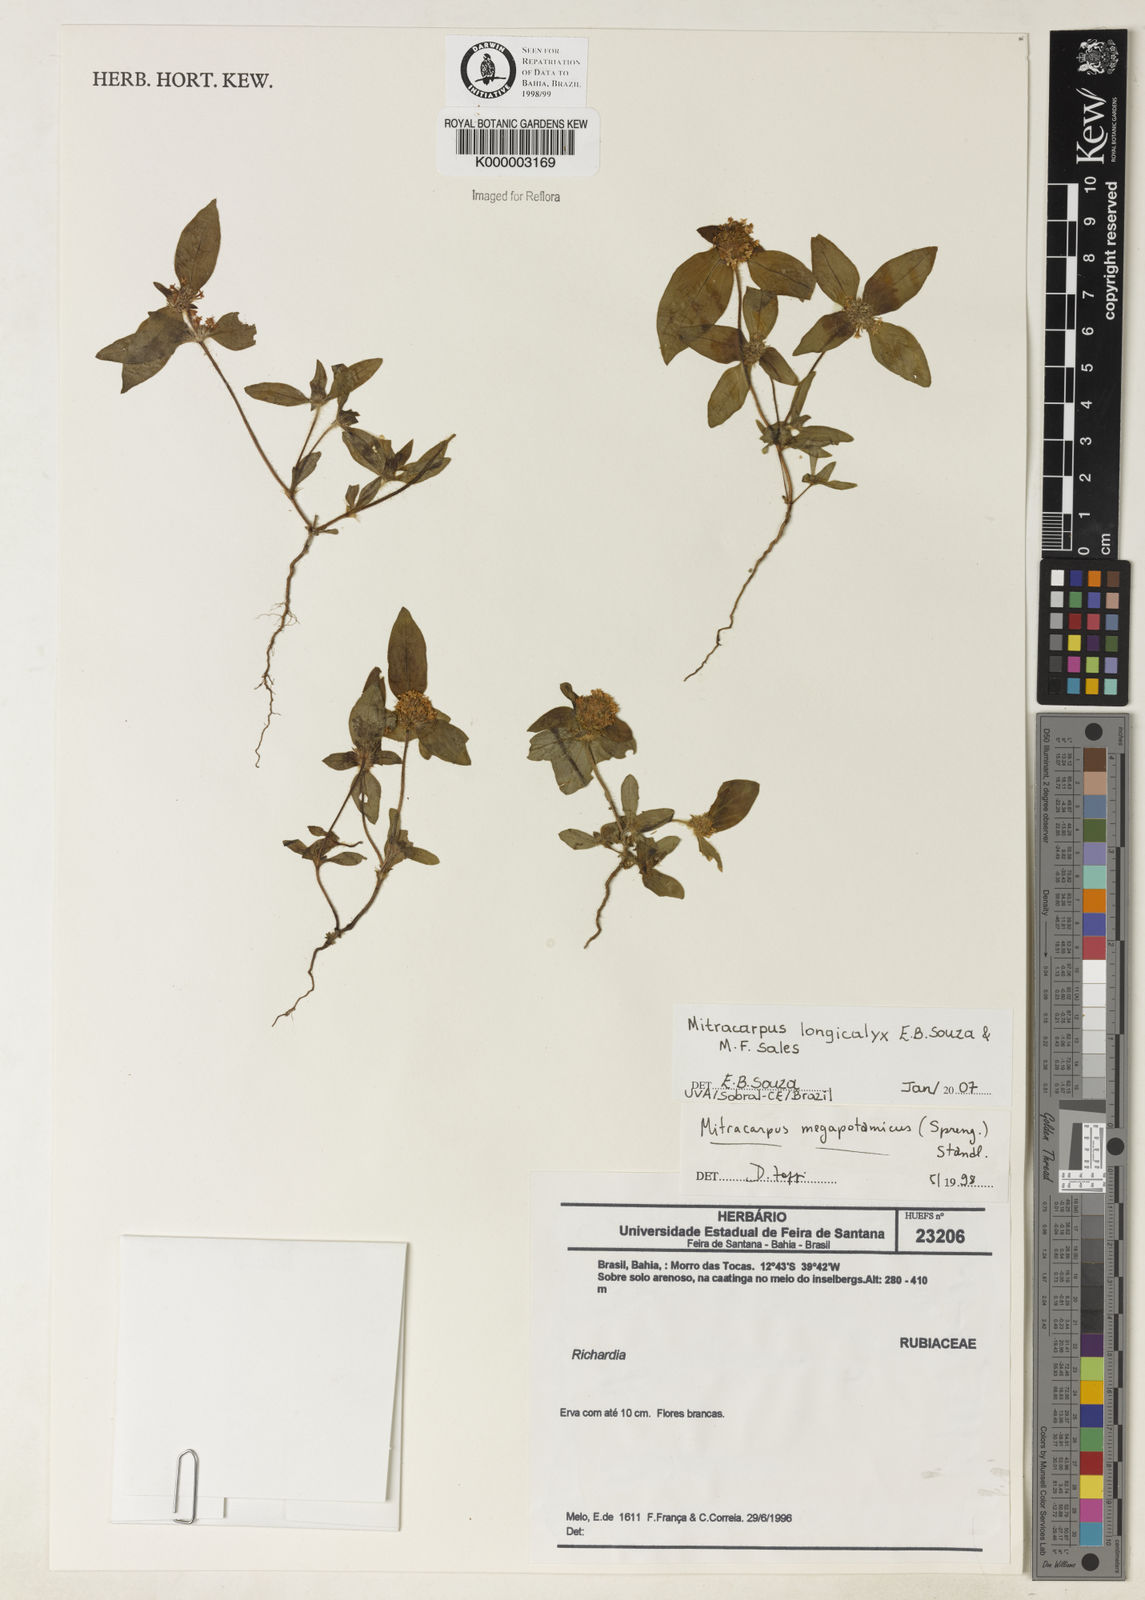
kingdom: Plantae
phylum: Tracheophyta
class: Magnoliopsida
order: Gentianales
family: Rubiaceae
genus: Mitracarpus
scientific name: Mitracarpus longicalyx
